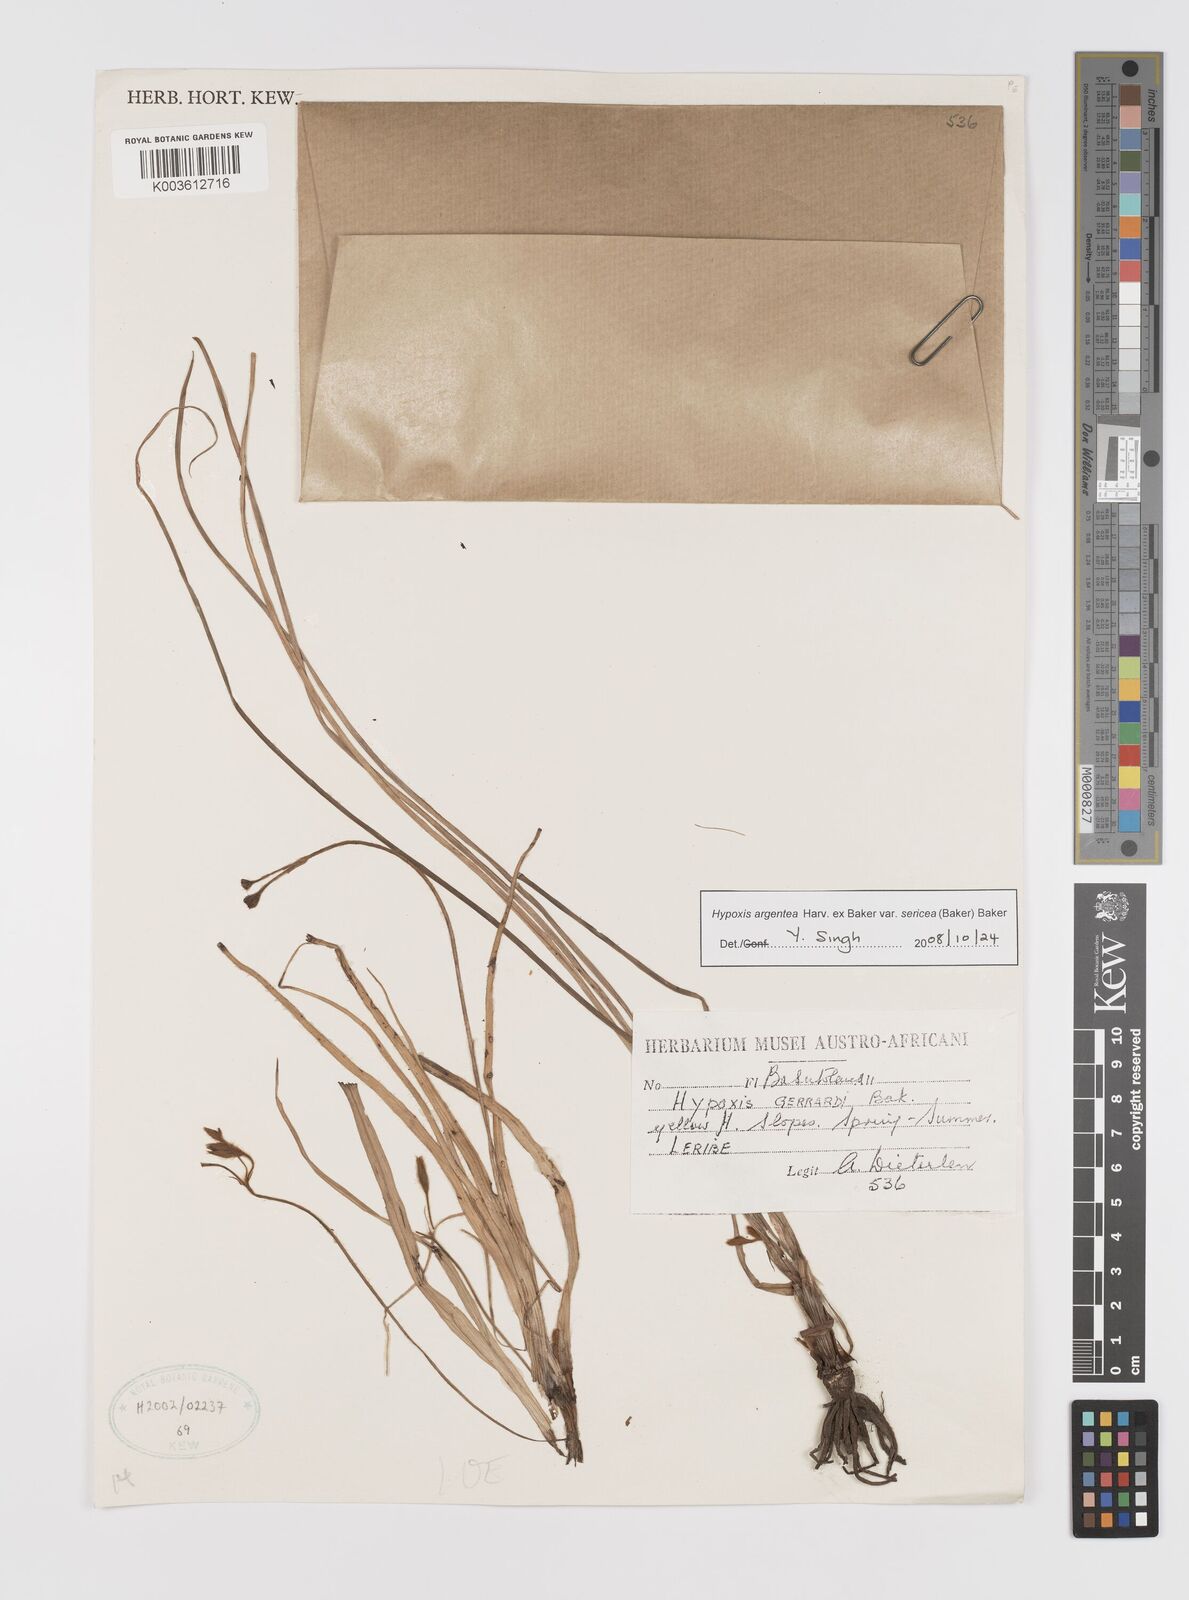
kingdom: Plantae
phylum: Tracheophyta
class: Liliopsida
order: Asparagales
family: Hypoxidaceae
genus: Hypoxis
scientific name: Hypoxis argentea
